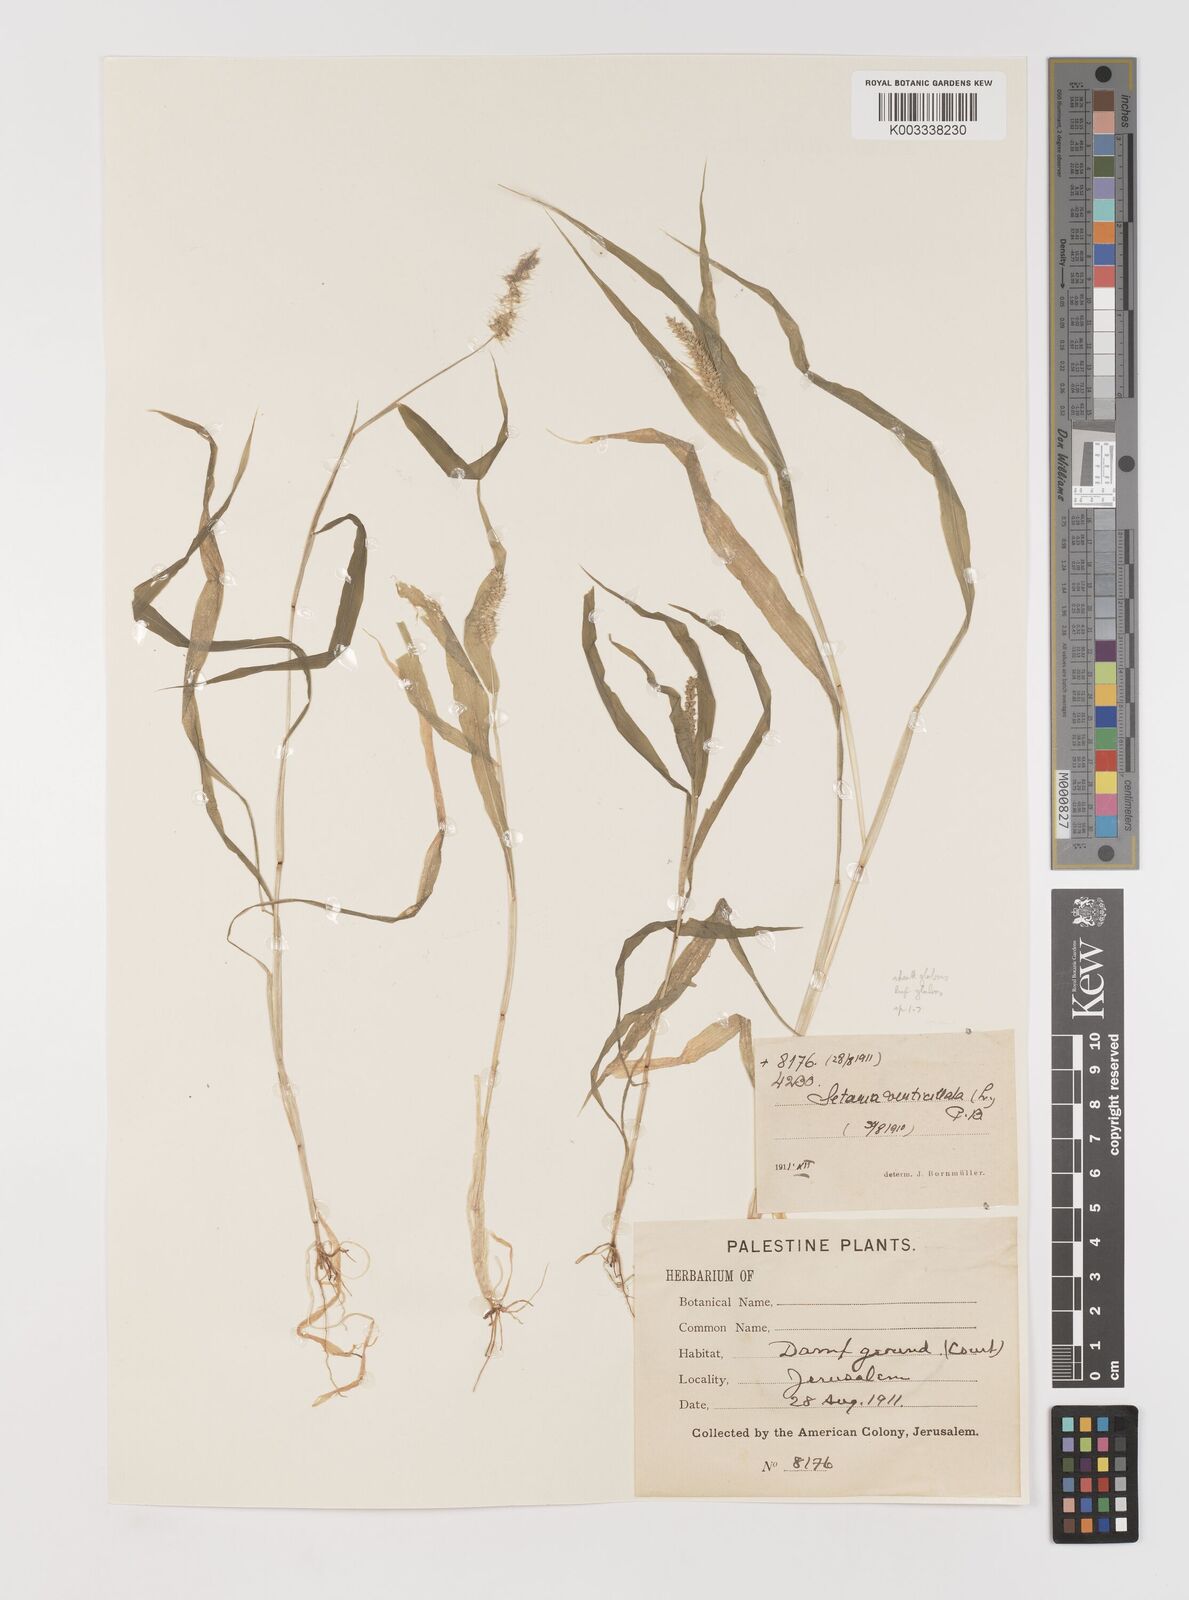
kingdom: Plantae
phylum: Tracheophyta
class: Liliopsida
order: Poales
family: Poaceae
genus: Setaria
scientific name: Setaria verticillata
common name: Hooked bristlegrass
